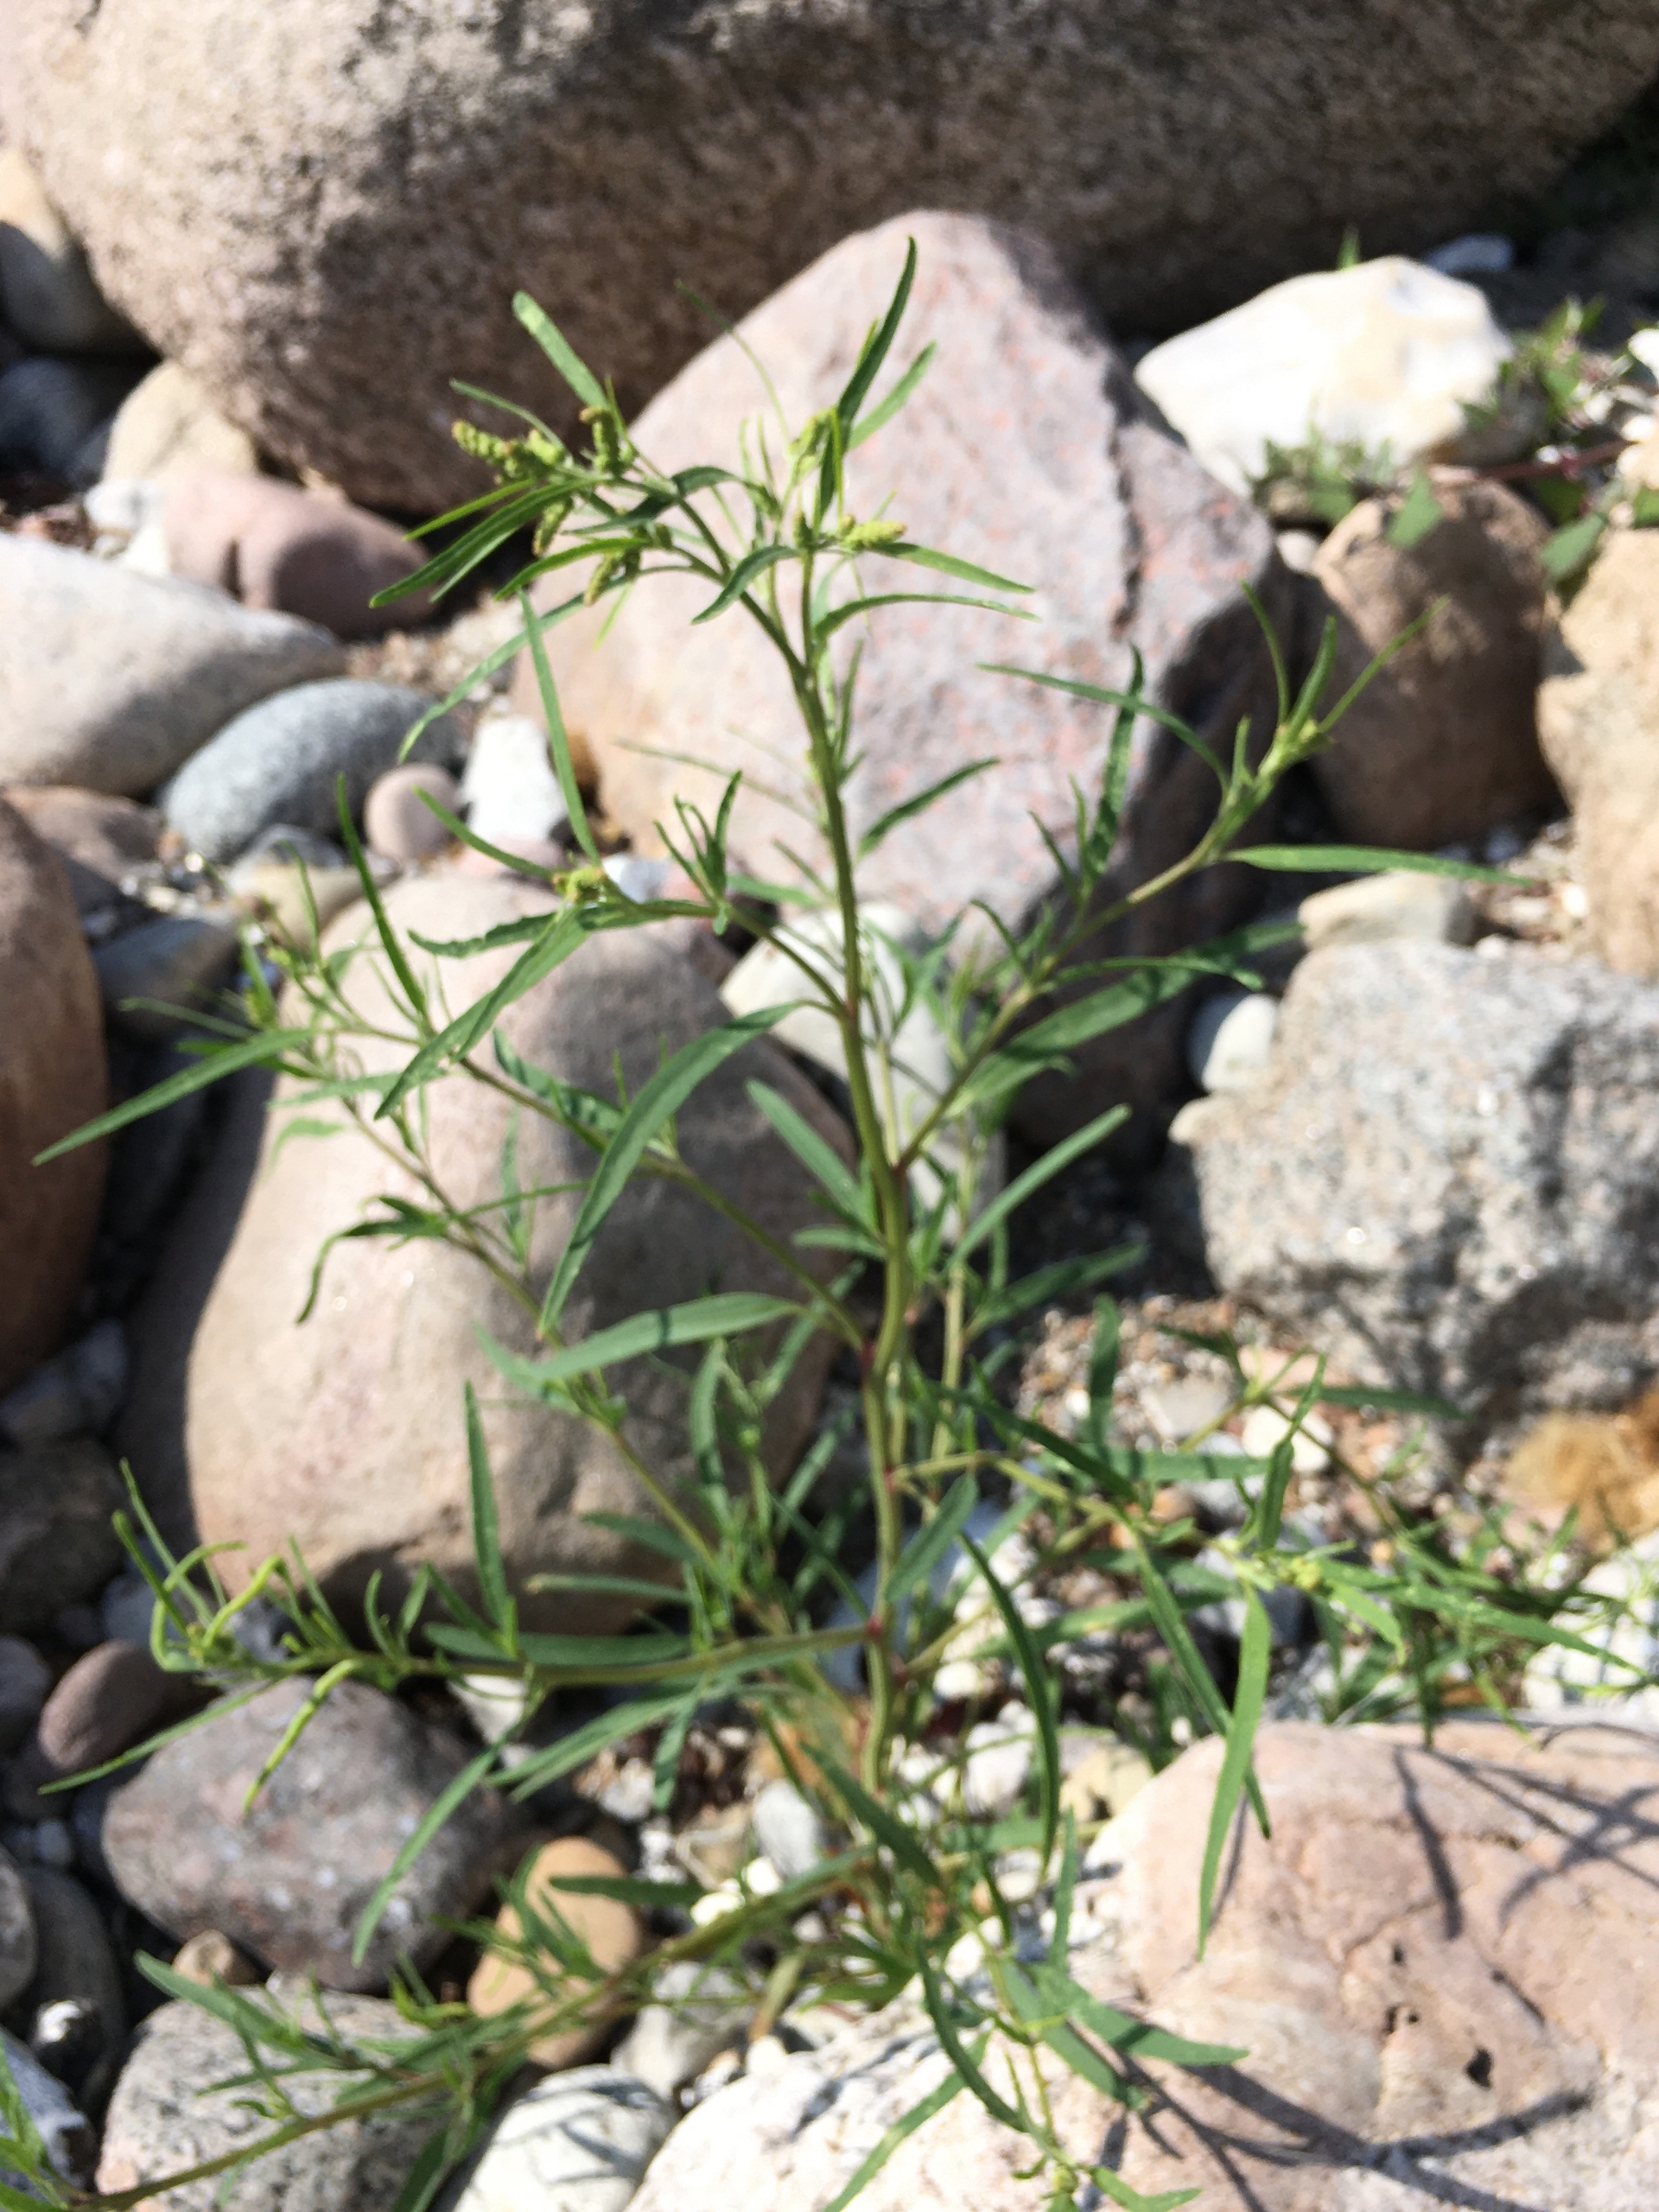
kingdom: Plantae
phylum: Tracheophyta
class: Magnoliopsida
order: Caryophyllales
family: Amaranthaceae
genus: Atriplex
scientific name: Atriplex littoralis
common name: Strand-mælde
